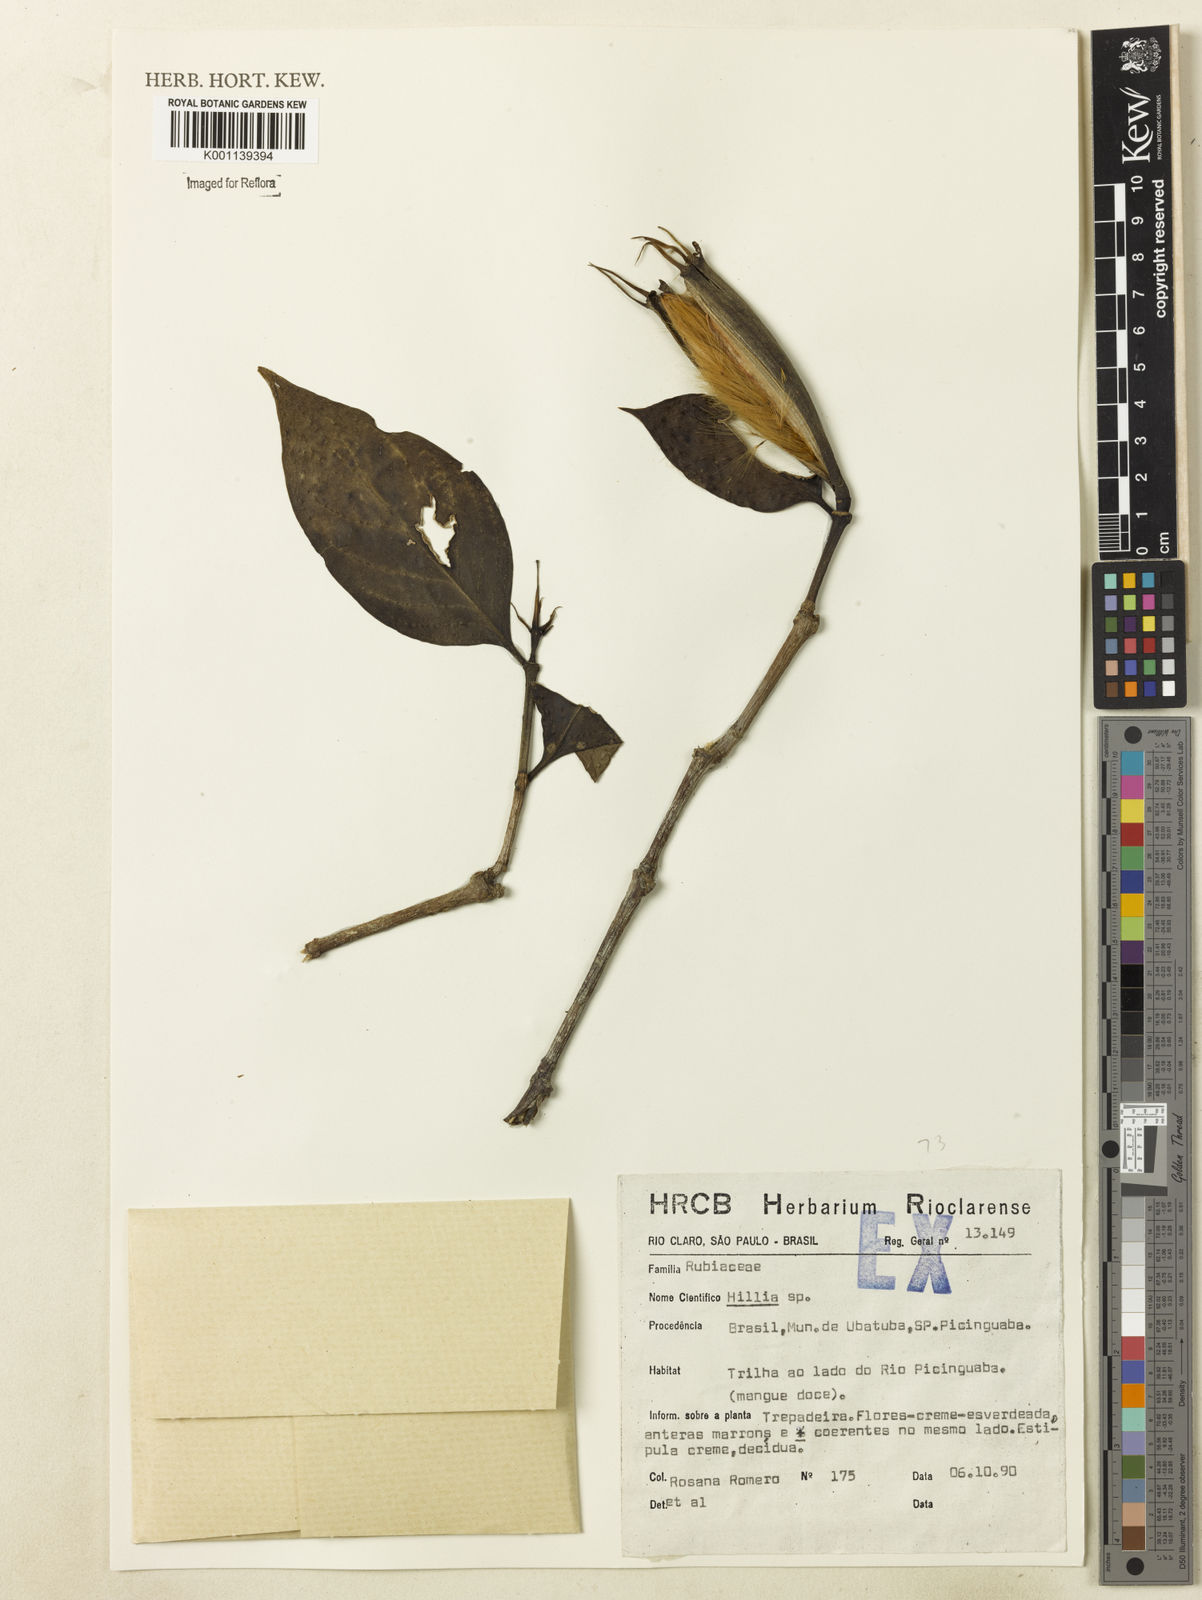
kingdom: Plantae
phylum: Tracheophyta
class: Magnoliopsida
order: Gentianales
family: Rubiaceae
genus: Hillia
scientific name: Hillia
